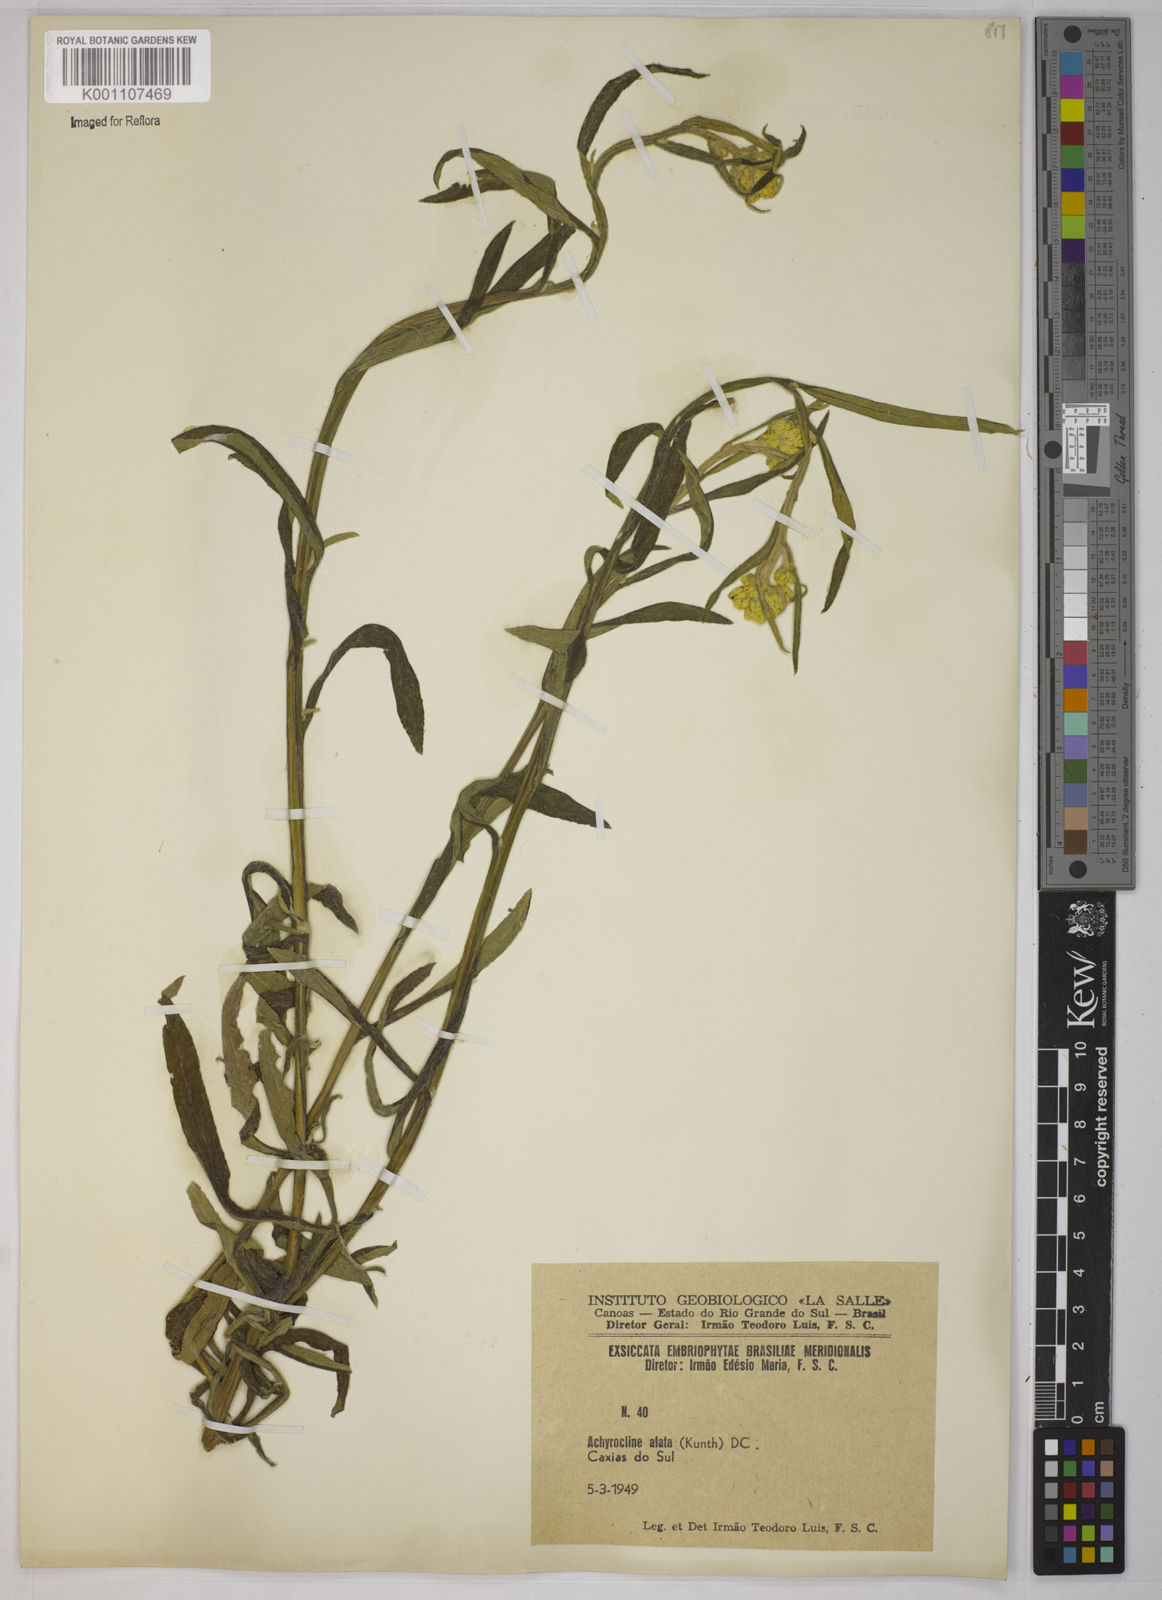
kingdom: Plantae
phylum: Tracheophyta
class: Magnoliopsida
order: Asterales
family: Asteraceae
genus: Achyrocline
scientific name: Achyrocline alata
